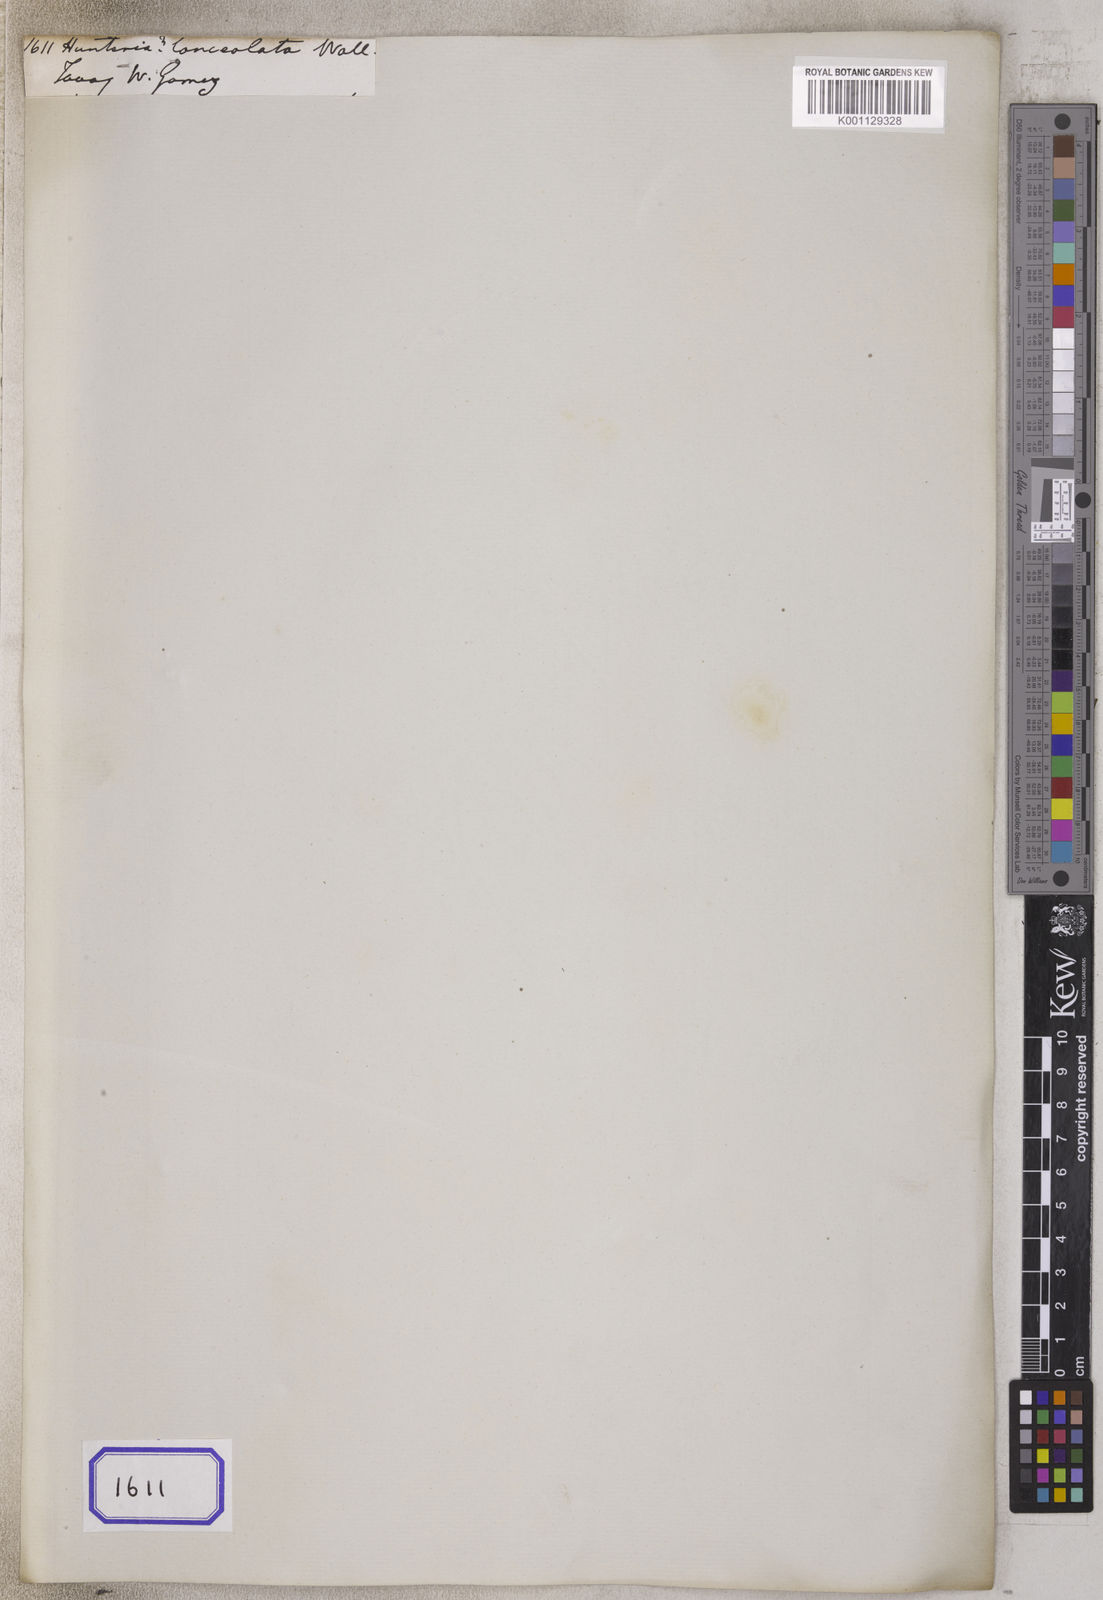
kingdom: Plantae
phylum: Tracheophyta
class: Magnoliopsida
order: Gentianales
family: Apocynaceae
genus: Hunteria
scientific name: Hunteria
